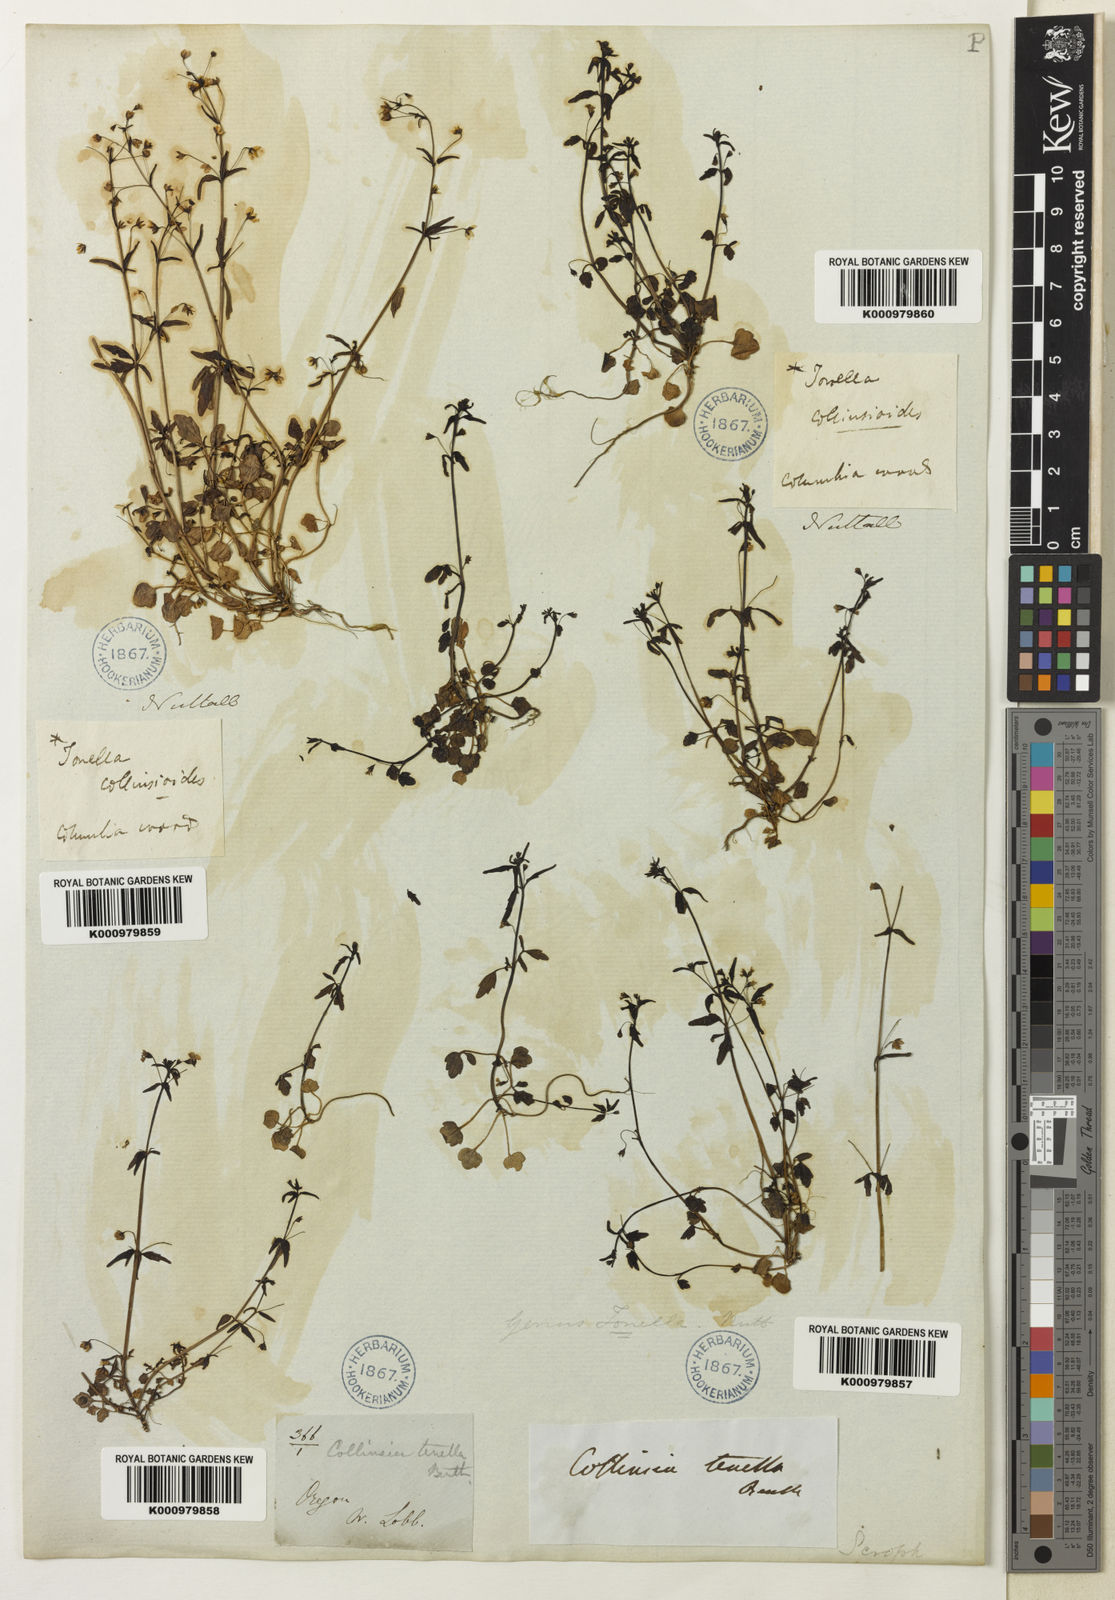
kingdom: Plantae
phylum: Tracheophyta
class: Magnoliopsida
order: Lamiales
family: Plantaginaceae
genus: Tonella
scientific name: Tonella tenella
